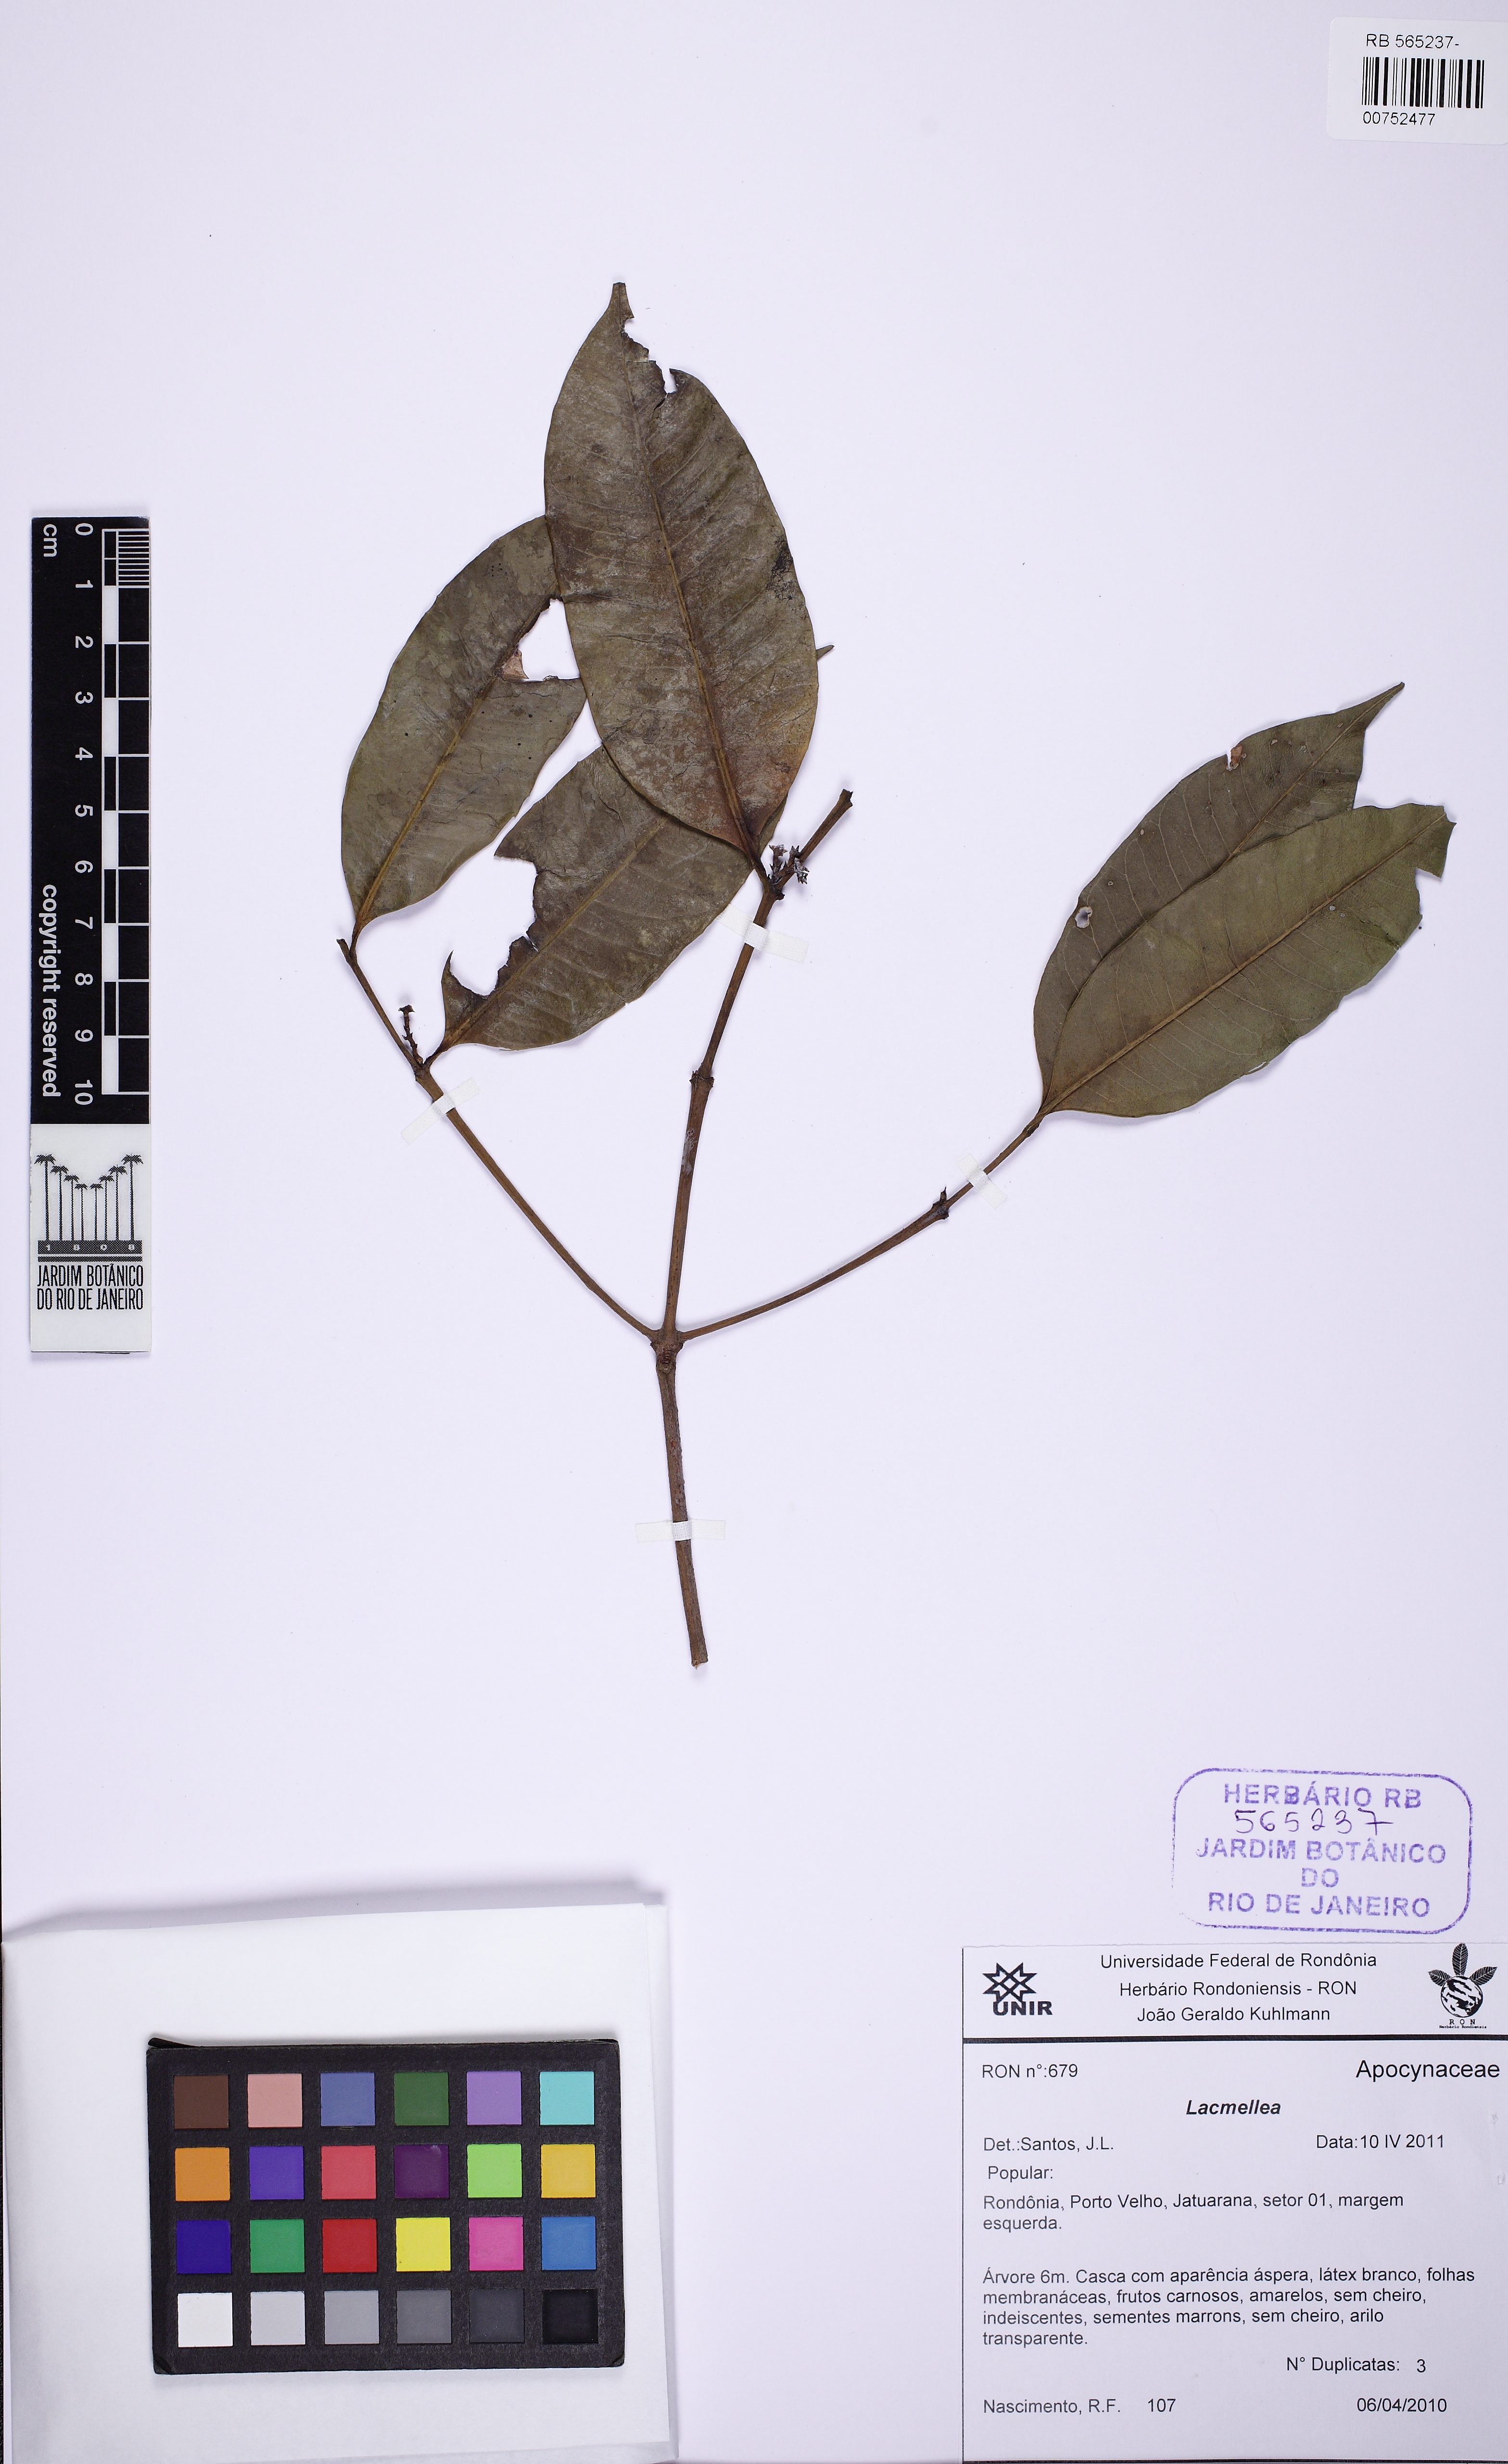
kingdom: Plantae
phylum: Tracheophyta
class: Magnoliopsida
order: Gentianales
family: Apocynaceae
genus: Lacmellea
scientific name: Lacmellea
